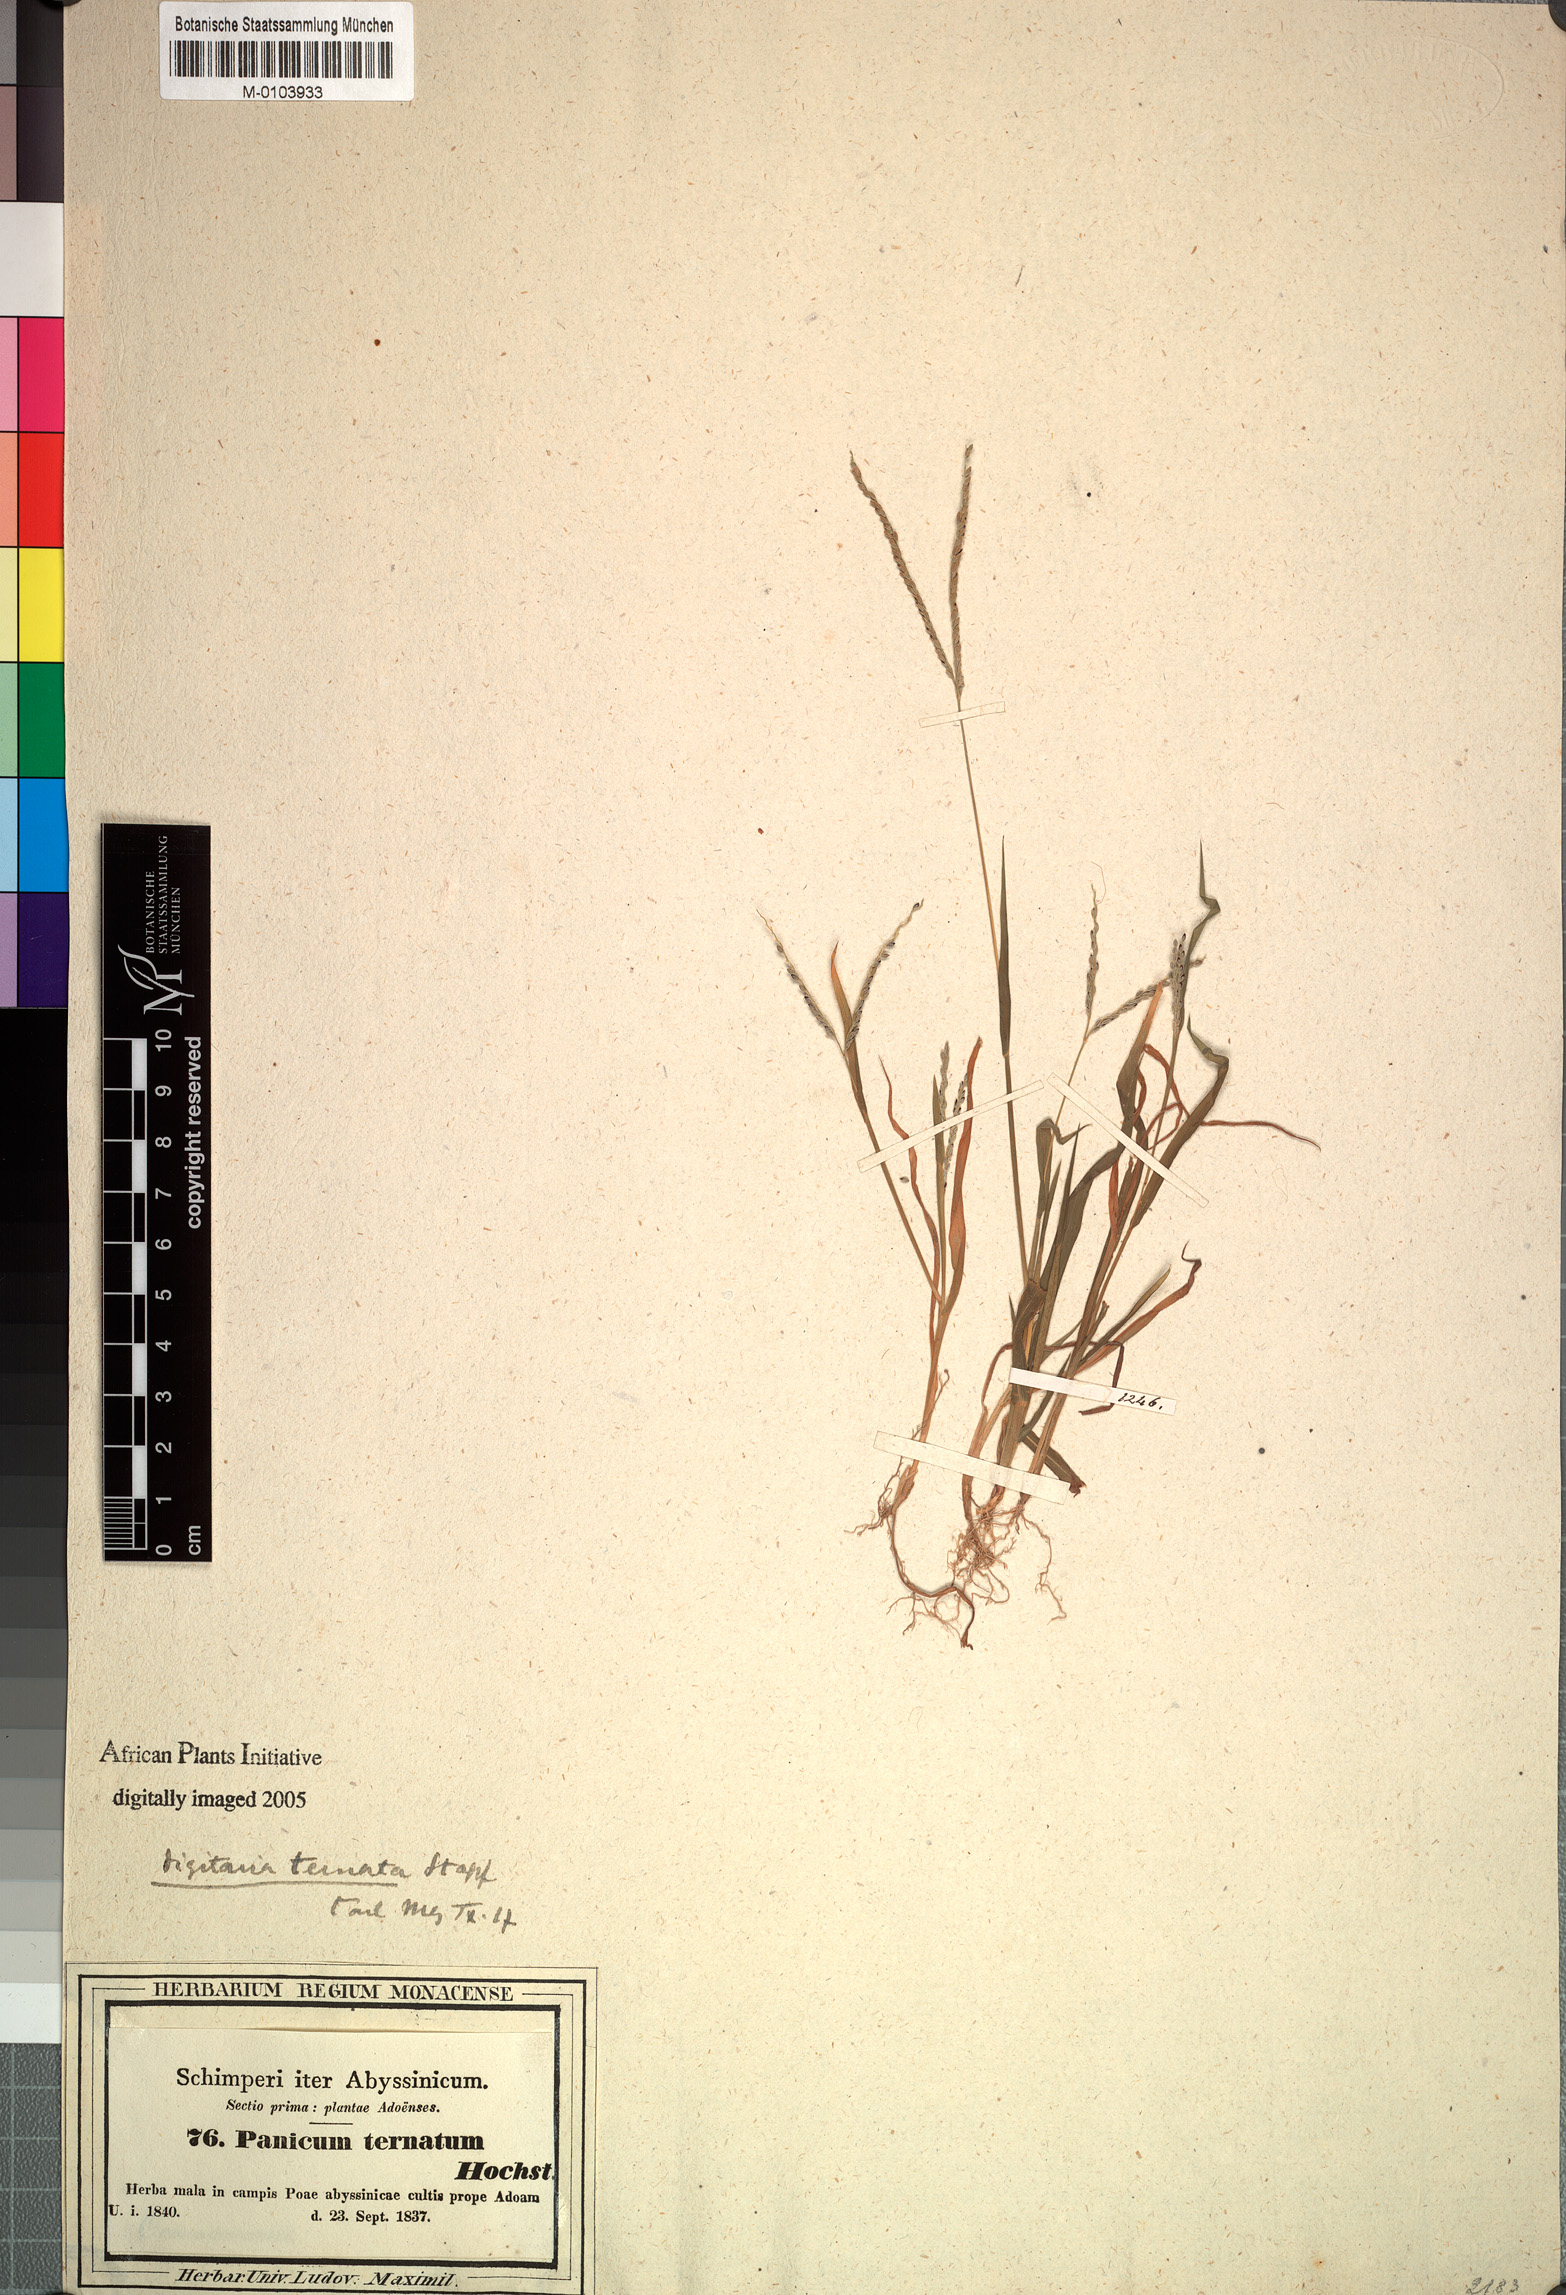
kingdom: Plantae
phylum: Tracheophyta
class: Liliopsida
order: Poales
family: Poaceae
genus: Digitaria
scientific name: Digitaria ternata
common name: Blackseed crabgrass
